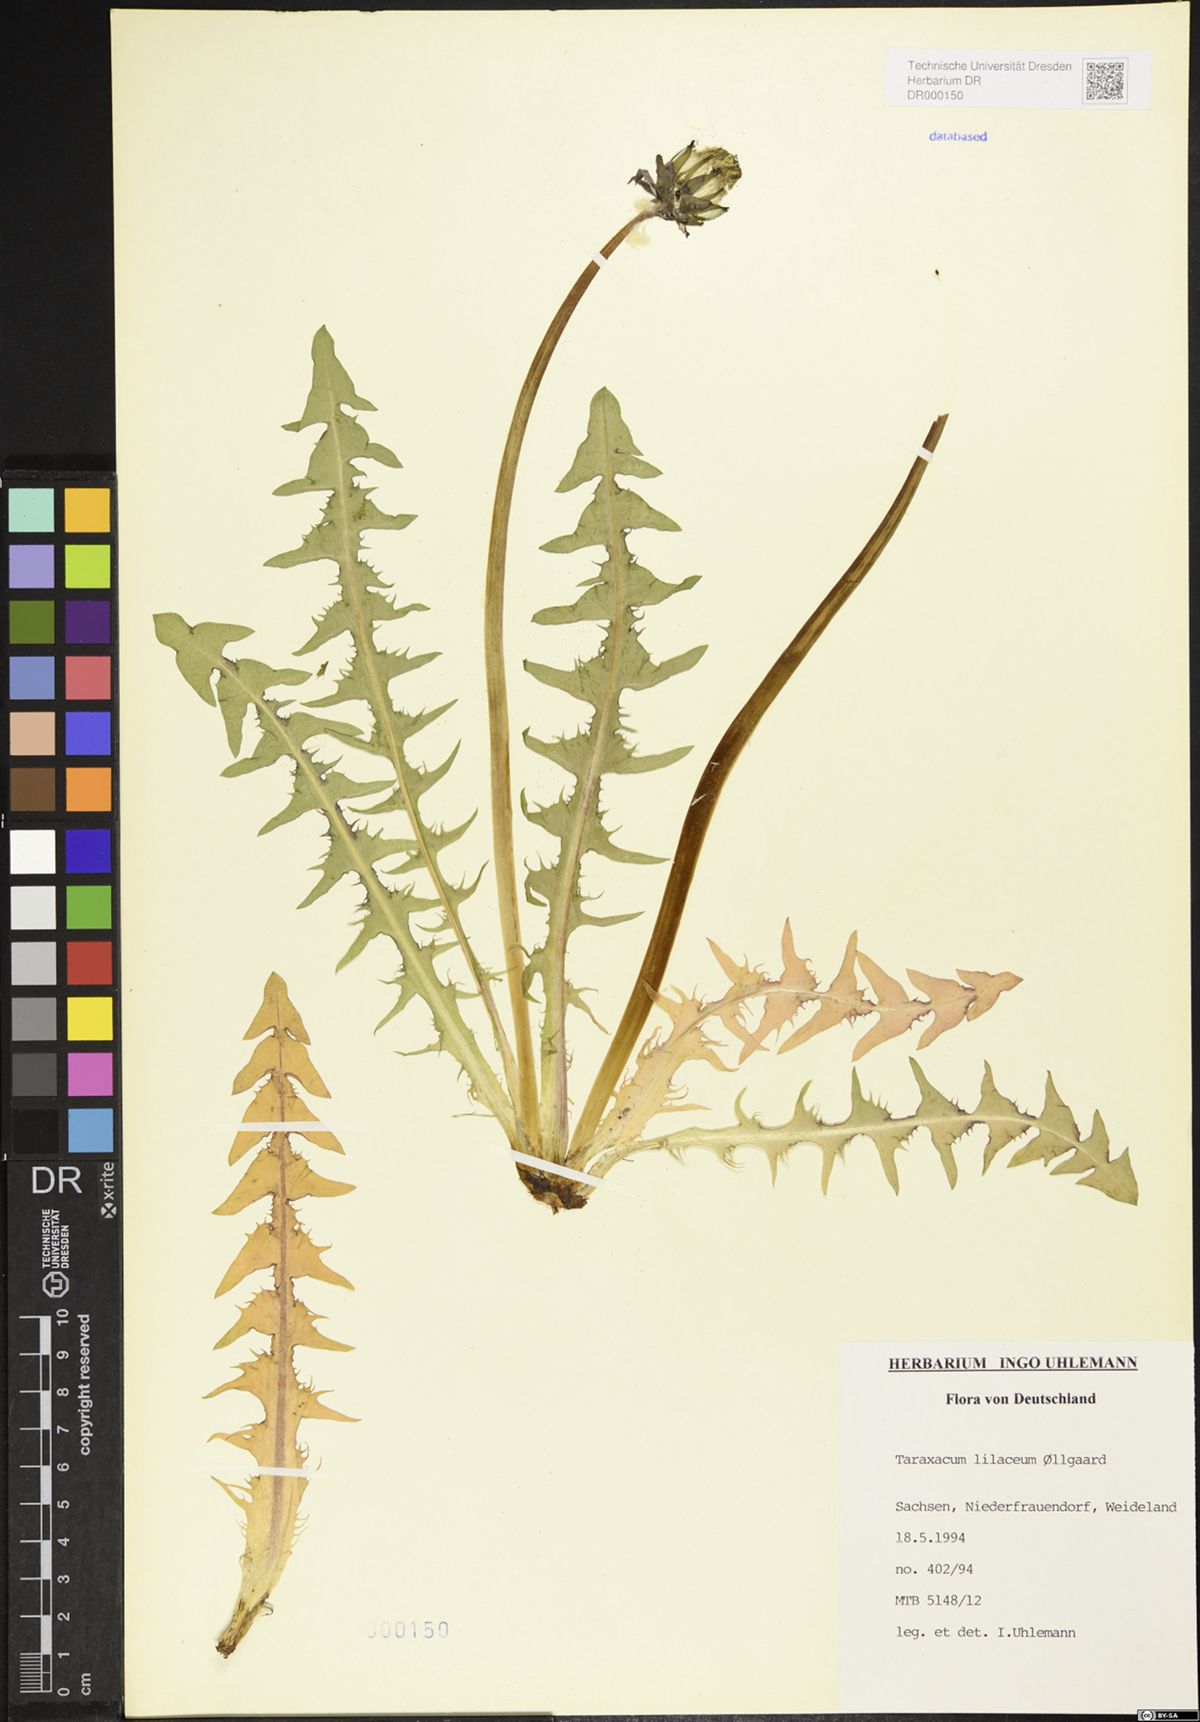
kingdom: Plantae
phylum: Tracheophyta
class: Magnoliopsida
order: Asterales
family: Asteraceae
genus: Taraxacum
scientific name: Taraxacum floccosum
